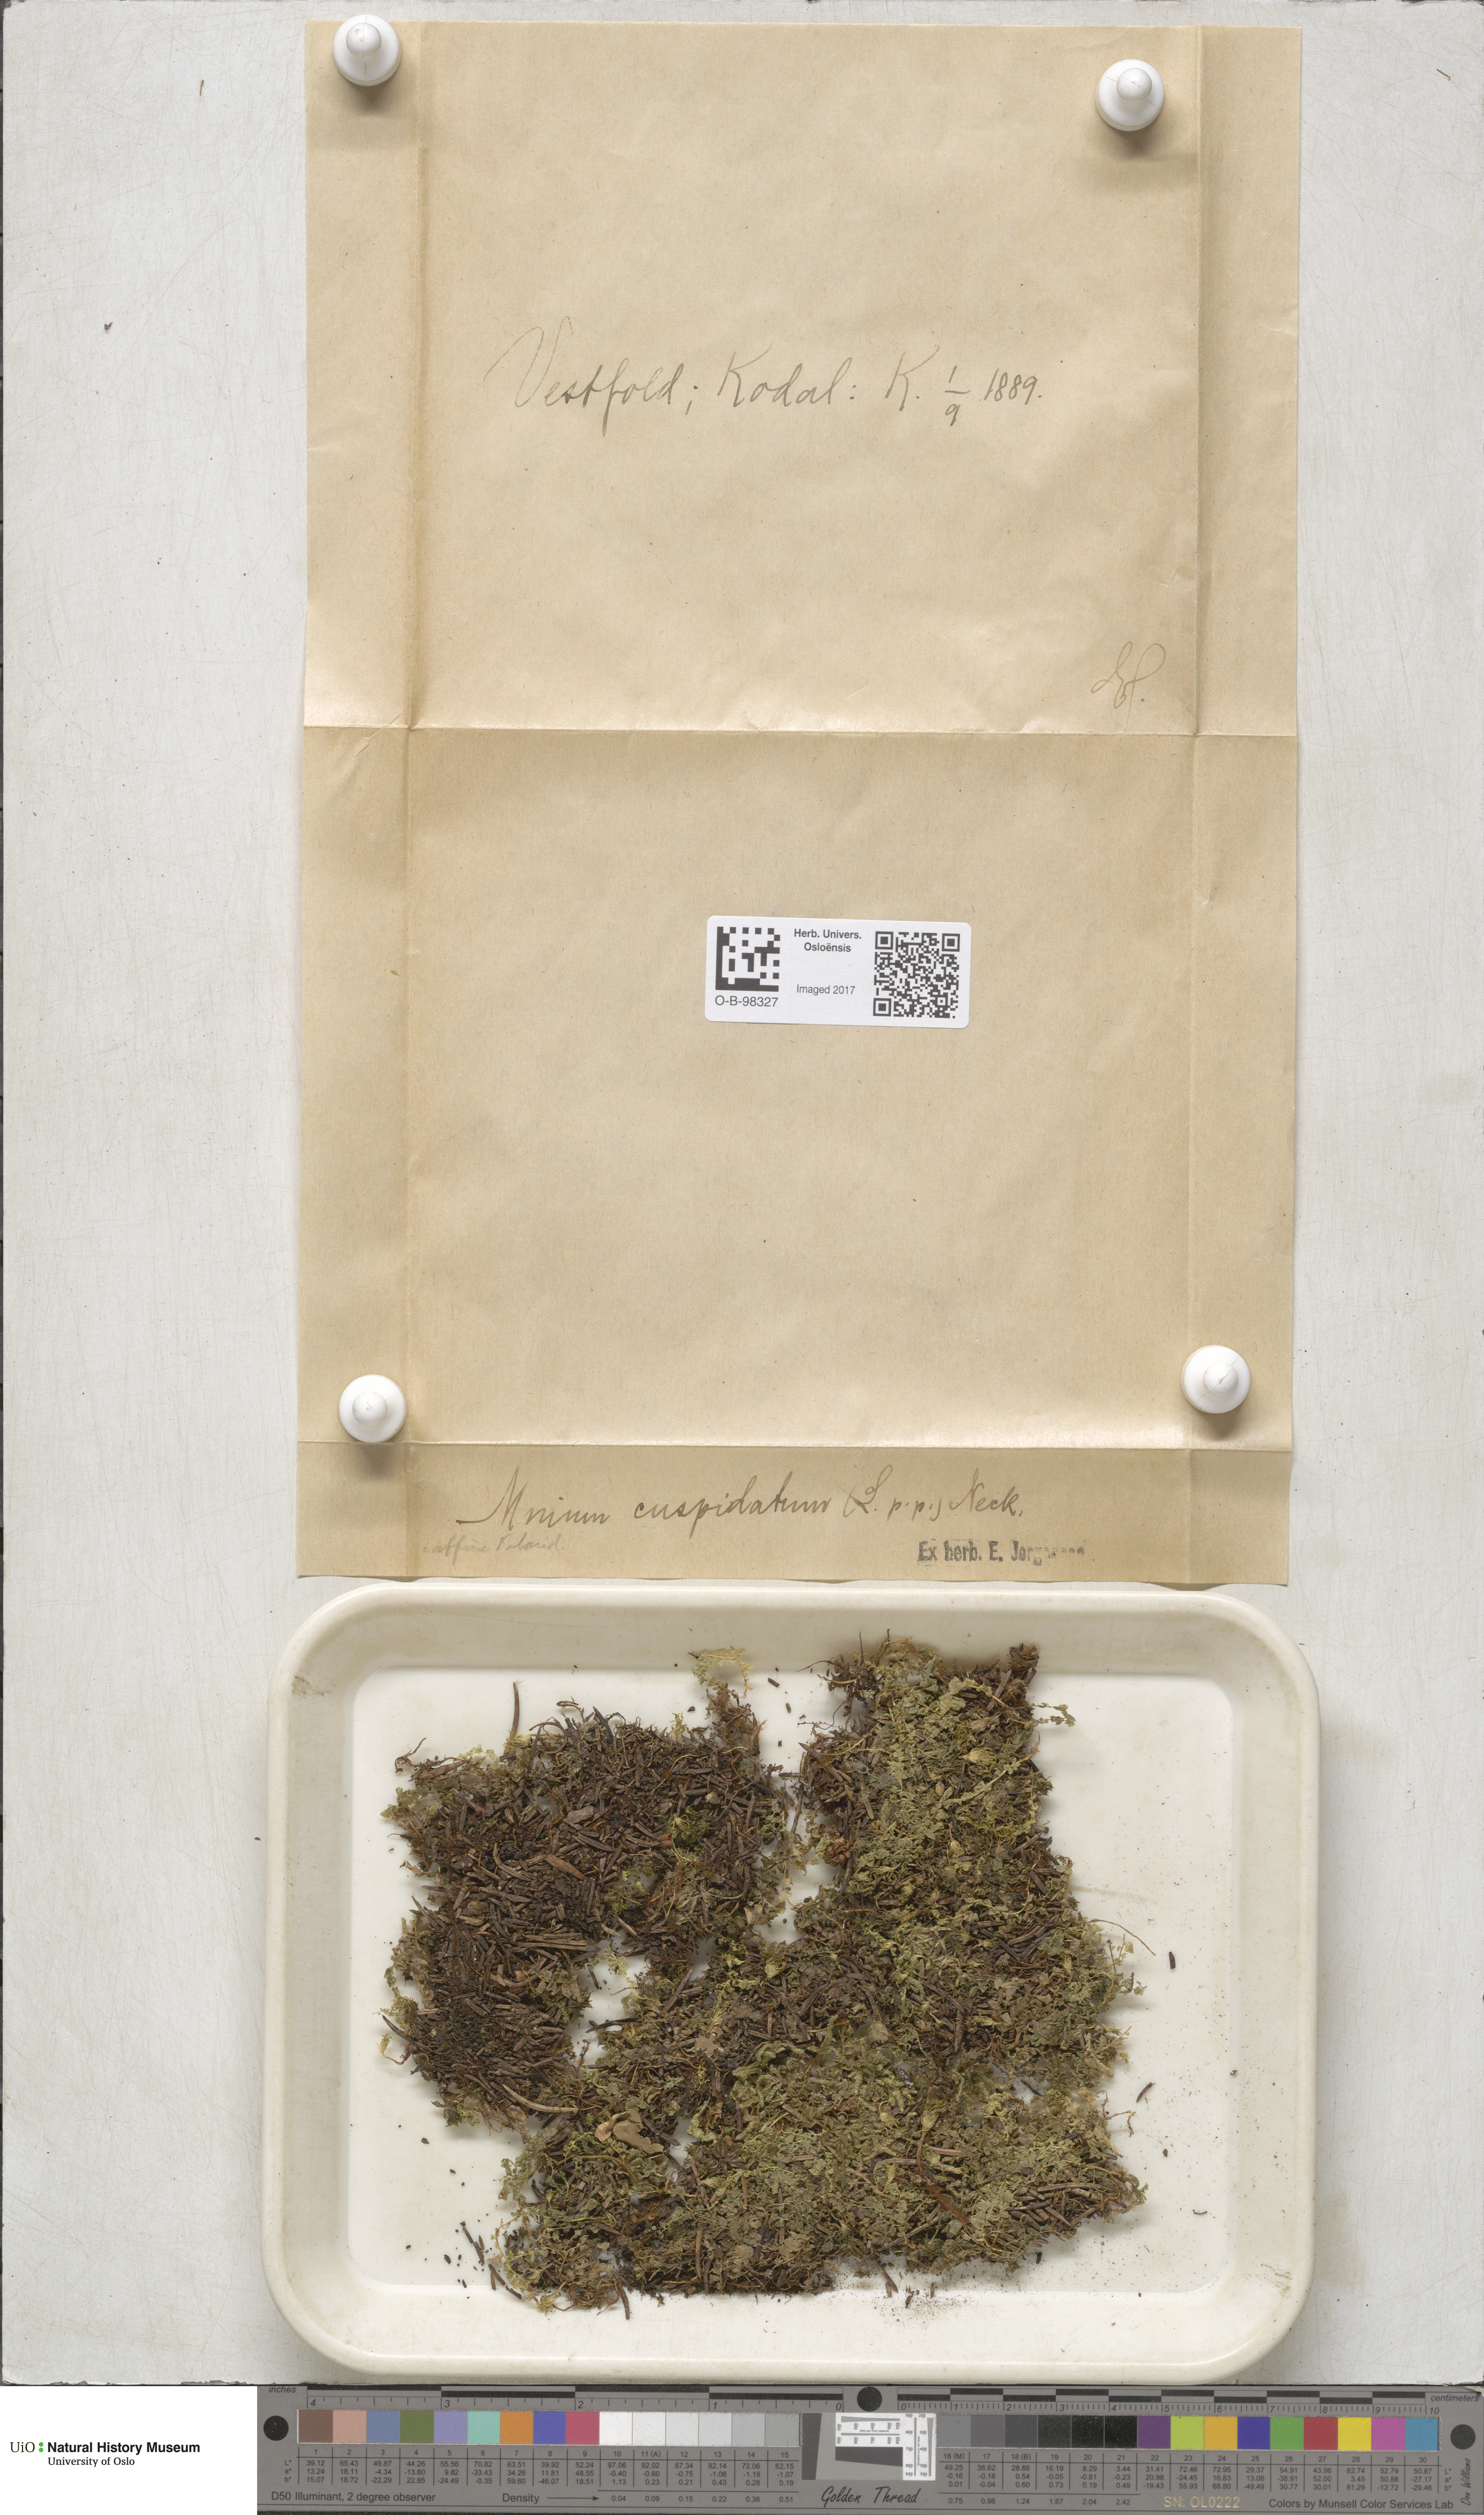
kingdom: Plantae
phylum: Bryophyta
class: Bryopsida
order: Bryales
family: Mniaceae
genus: Plagiomnium
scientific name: Plagiomnium cuspidatum
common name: Woodsy leafy moss
